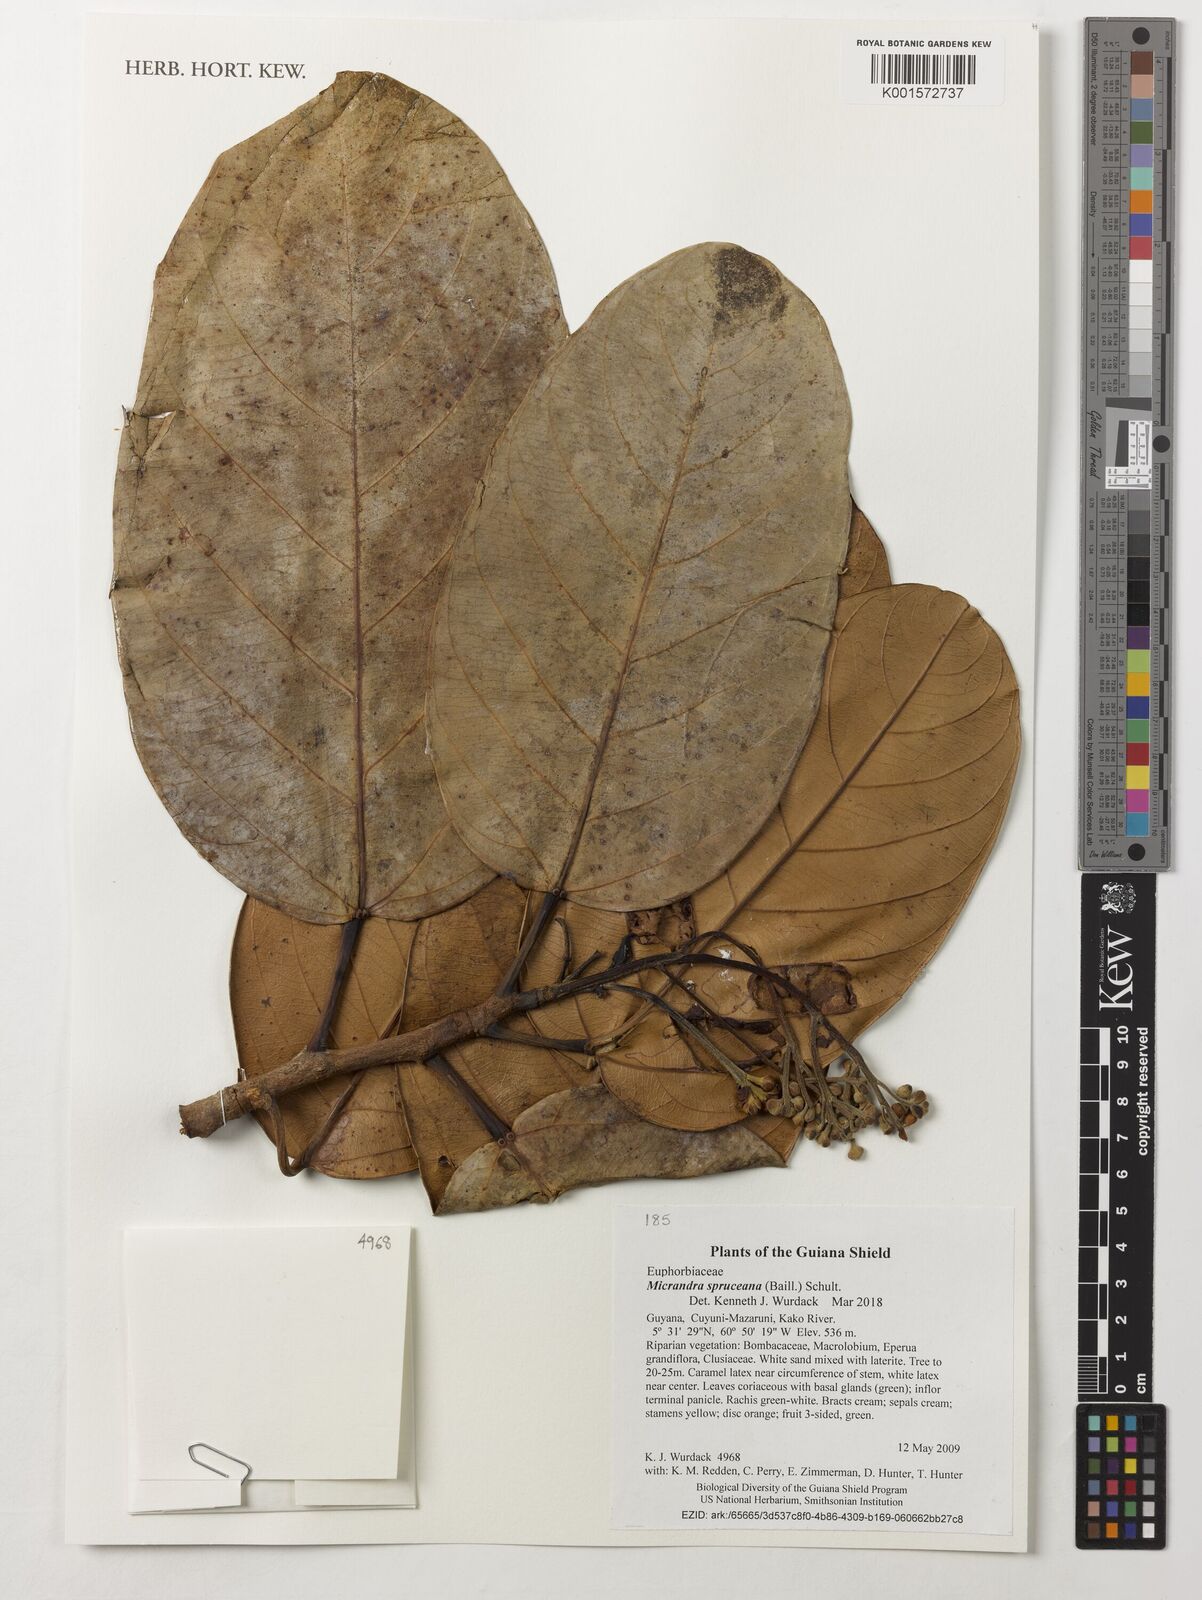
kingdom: Plantae
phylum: Tracheophyta
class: Magnoliopsida
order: Malpighiales
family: Euphorbiaceae
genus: Micrandra
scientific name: Micrandra spruceana
